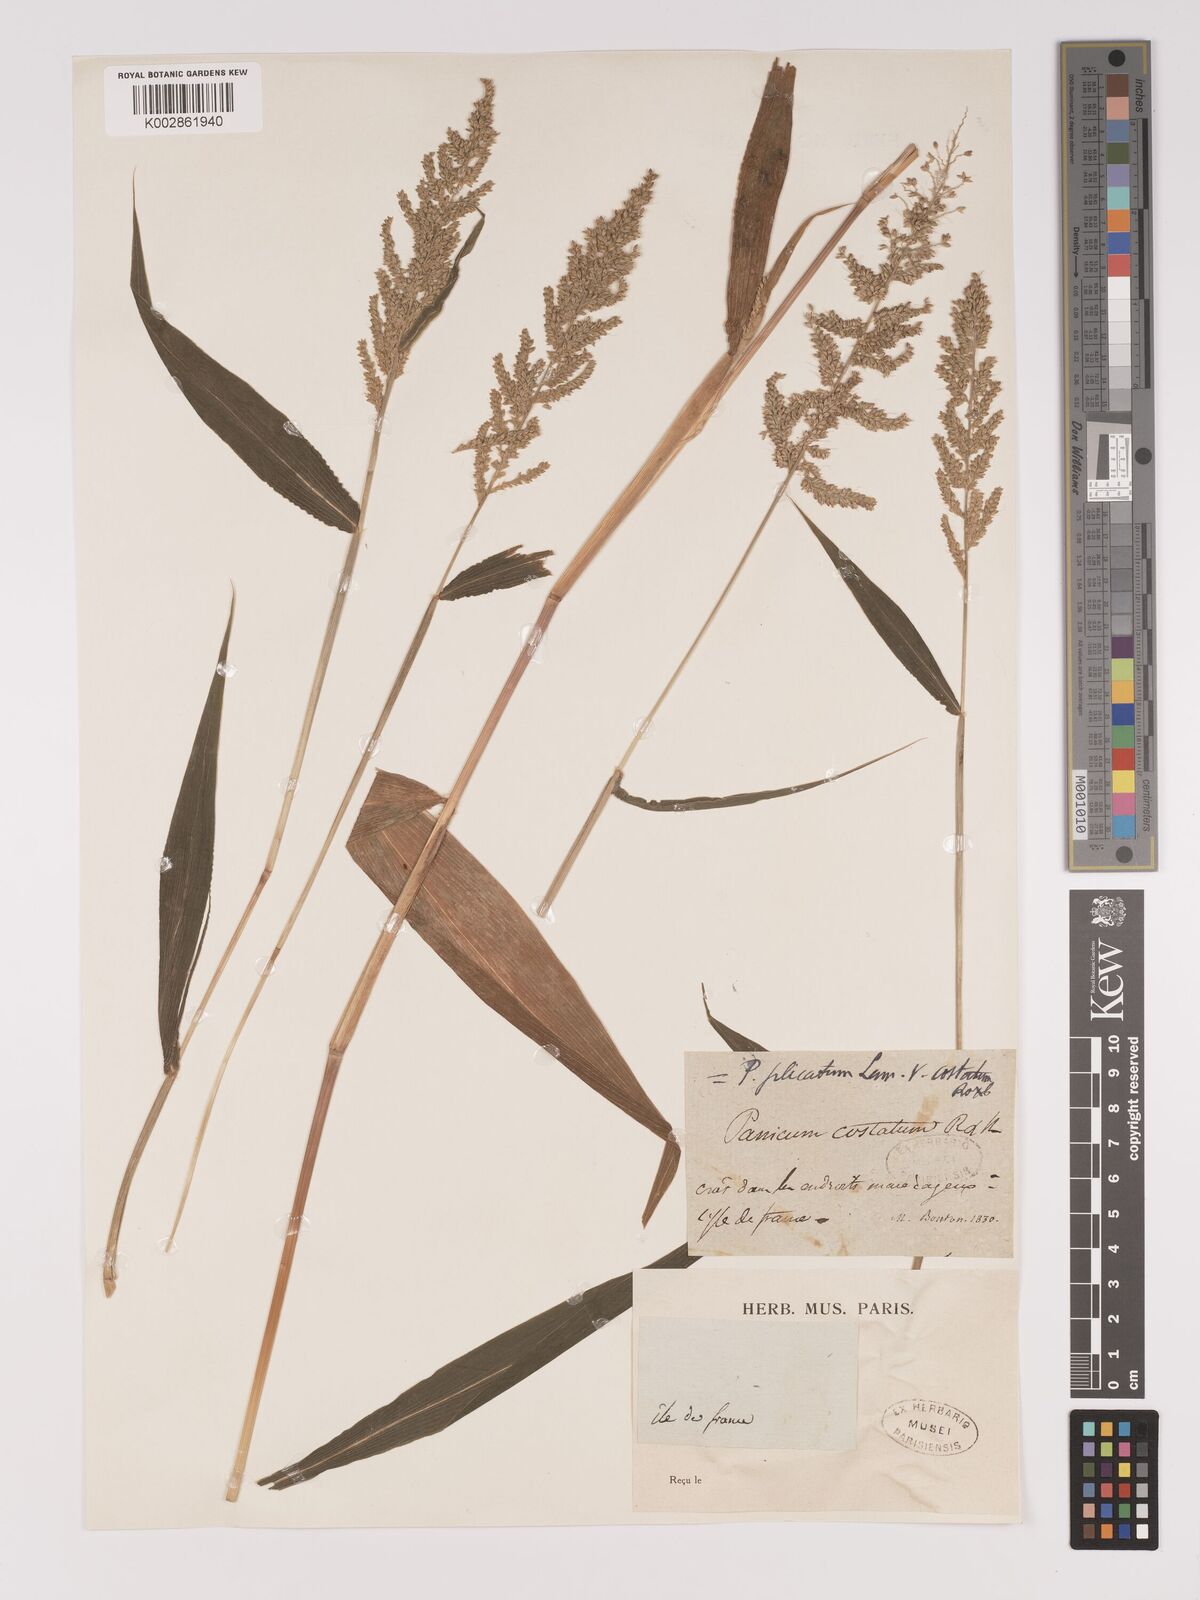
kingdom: Plantae
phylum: Tracheophyta
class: Liliopsida
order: Poales
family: Poaceae
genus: Setaria
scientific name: Setaria barbata
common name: East indian bristlegrass
